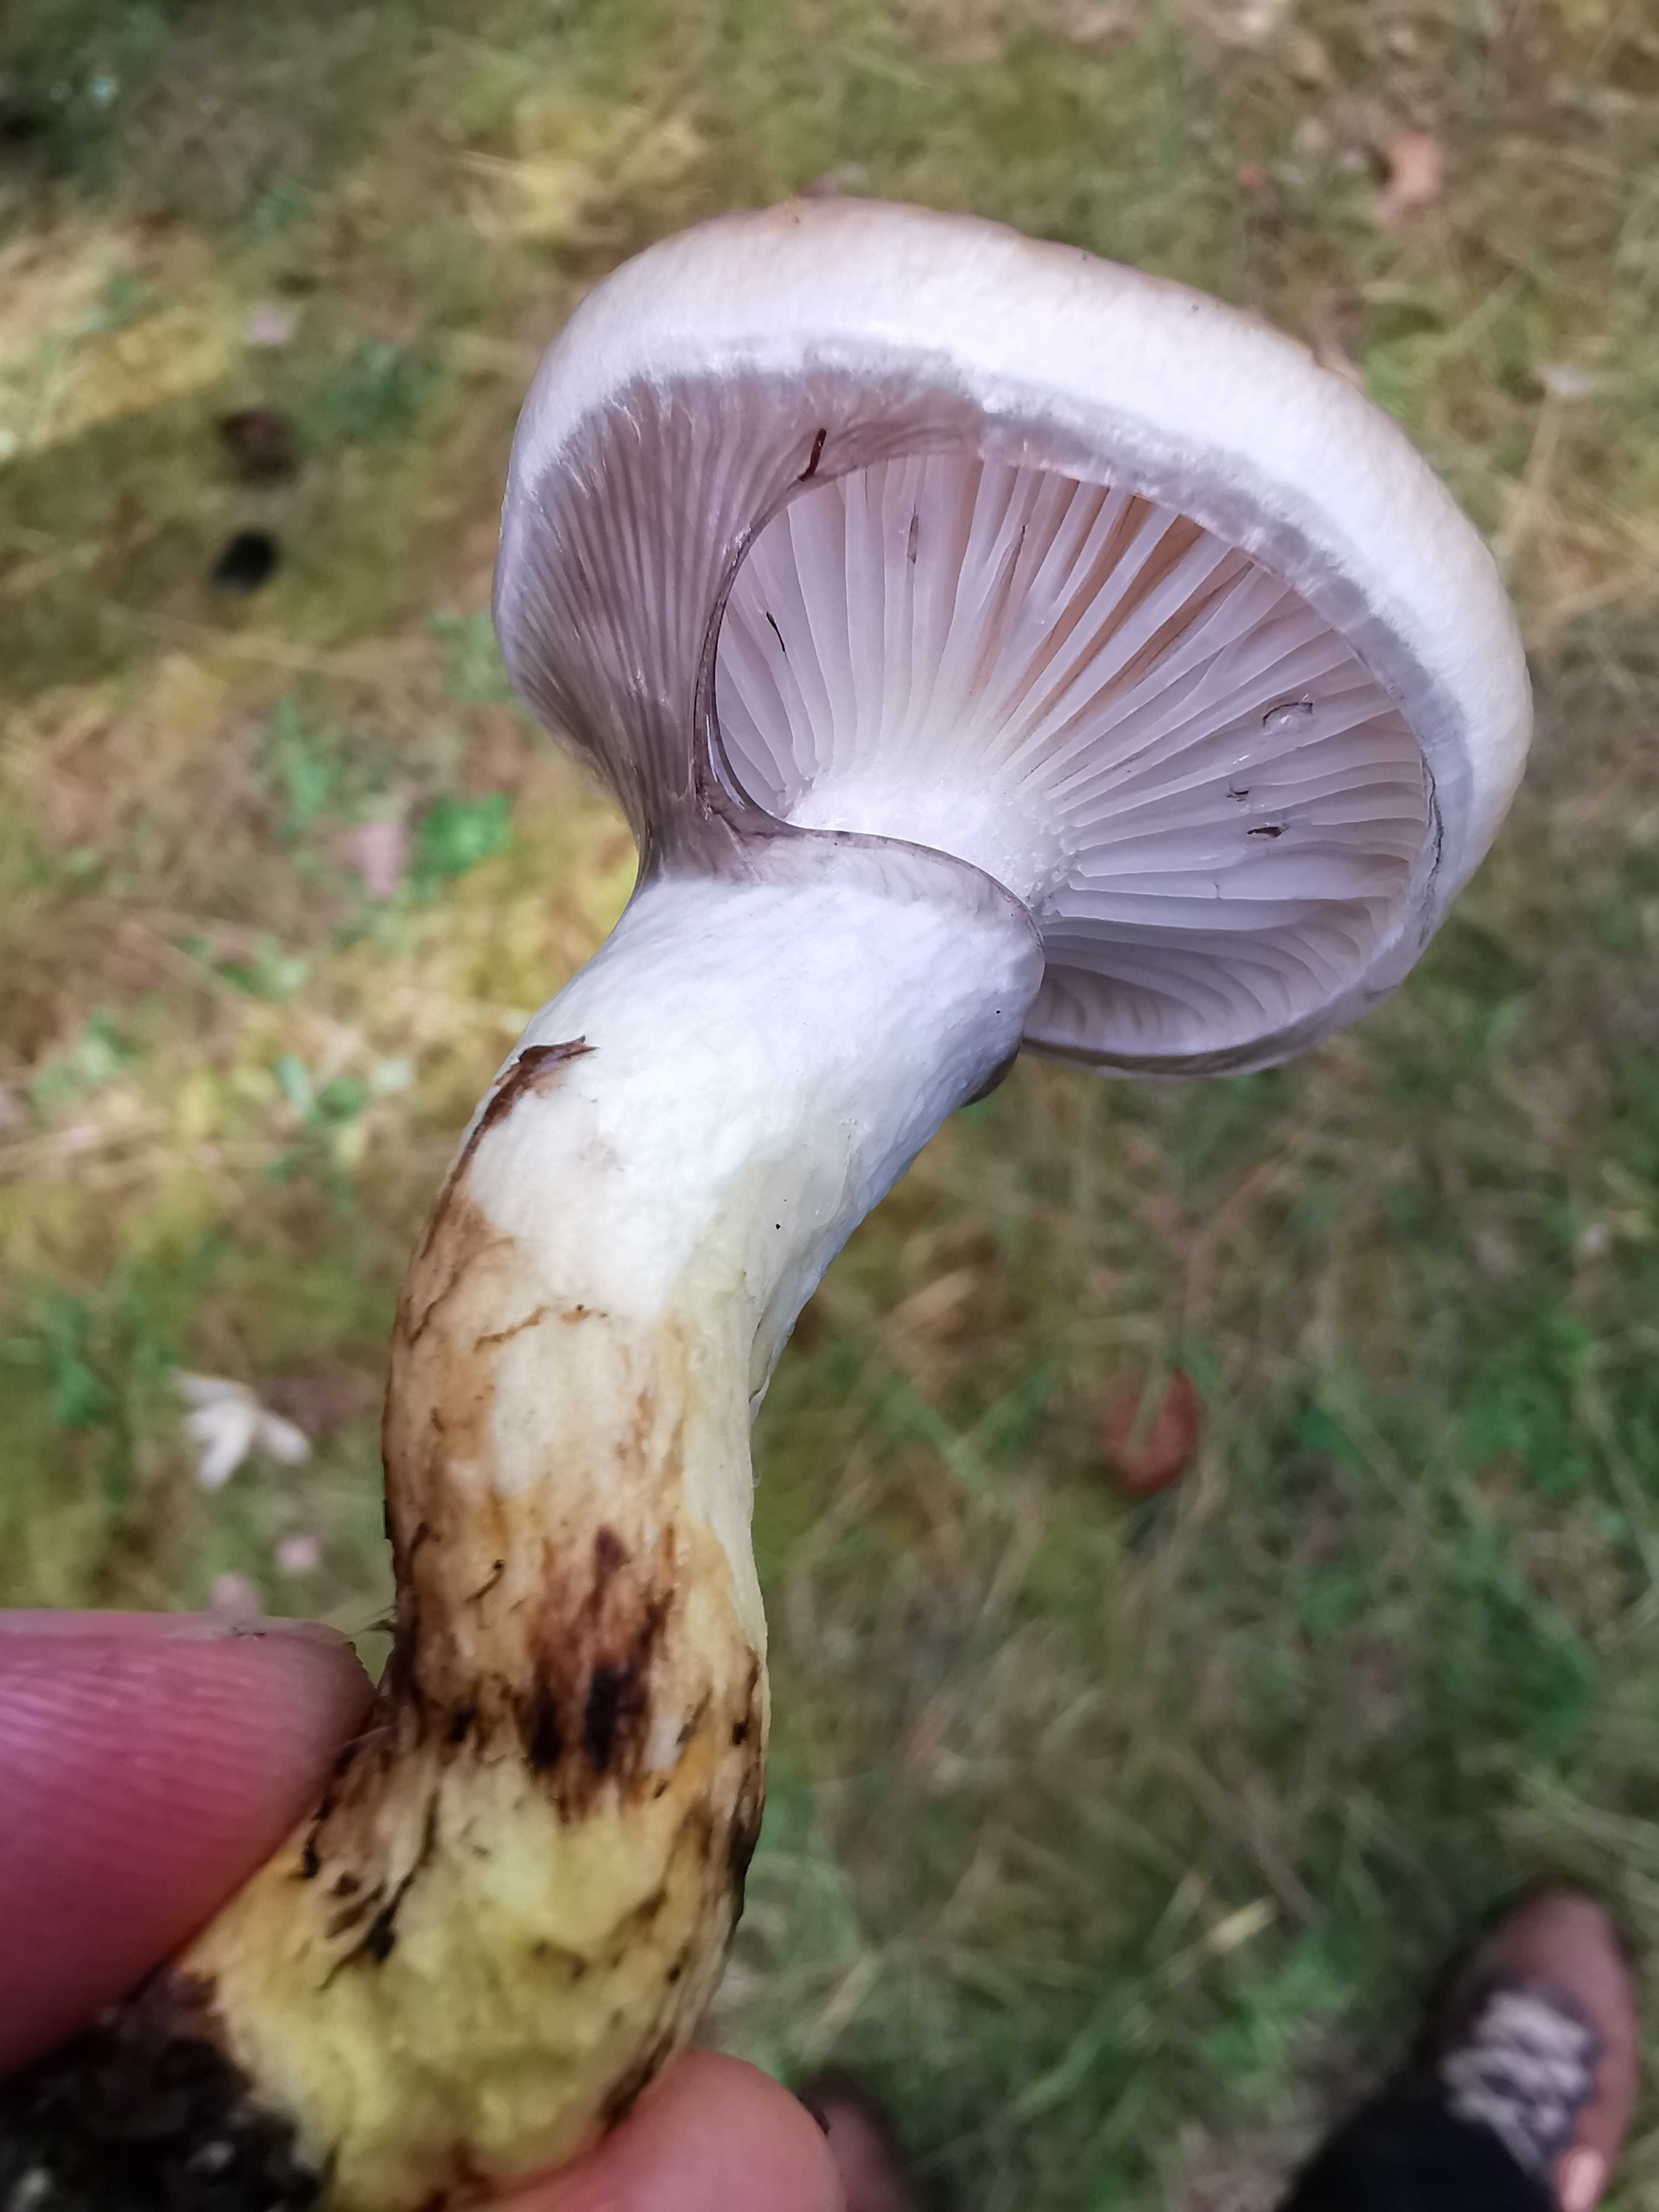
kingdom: Fungi
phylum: Basidiomycota
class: Agaricomycetes
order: Boletales
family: Gomphidiaceae
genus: Gomphidius
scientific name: Gomphidius glutinosus
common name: grå slimslør
